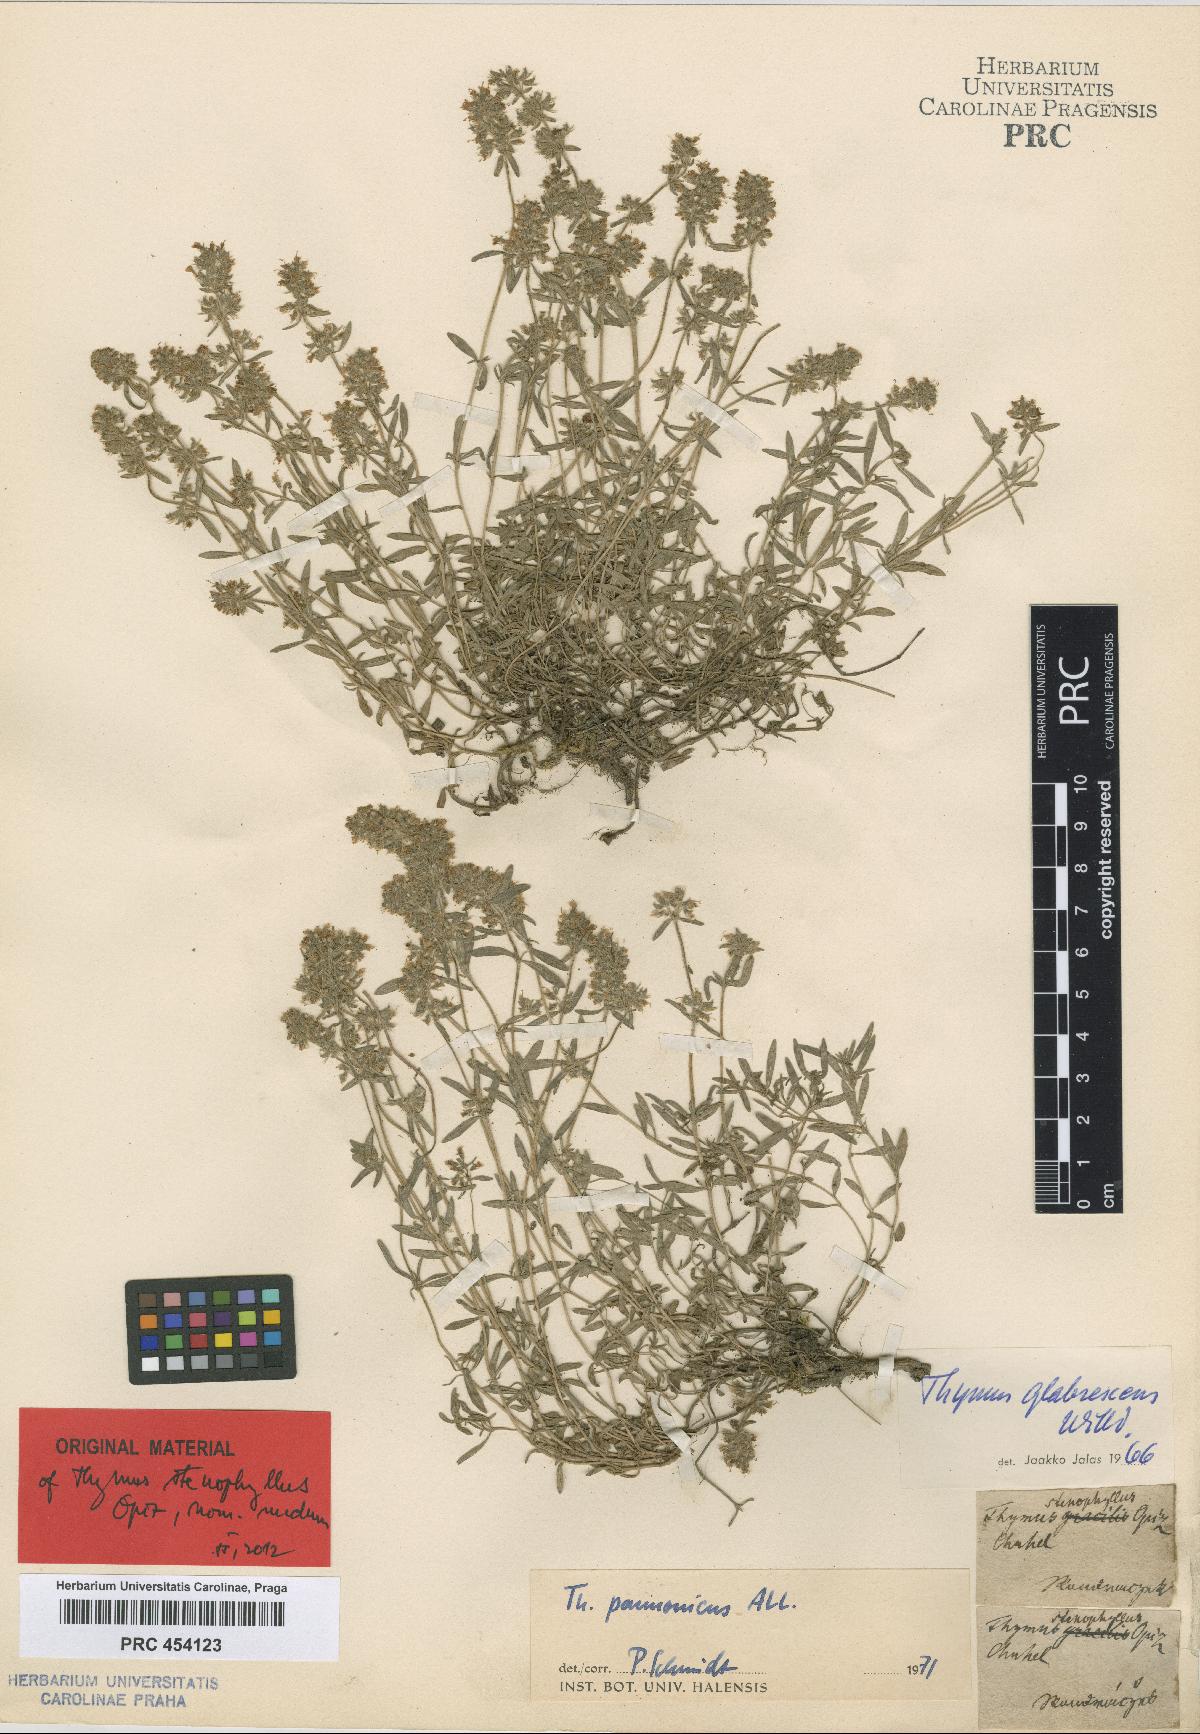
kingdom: Plantae
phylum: Tracheophyta
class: Magnoliopsida
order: Lamiales
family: Lamiaceae
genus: Thymus
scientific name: Thymus pannonicus
